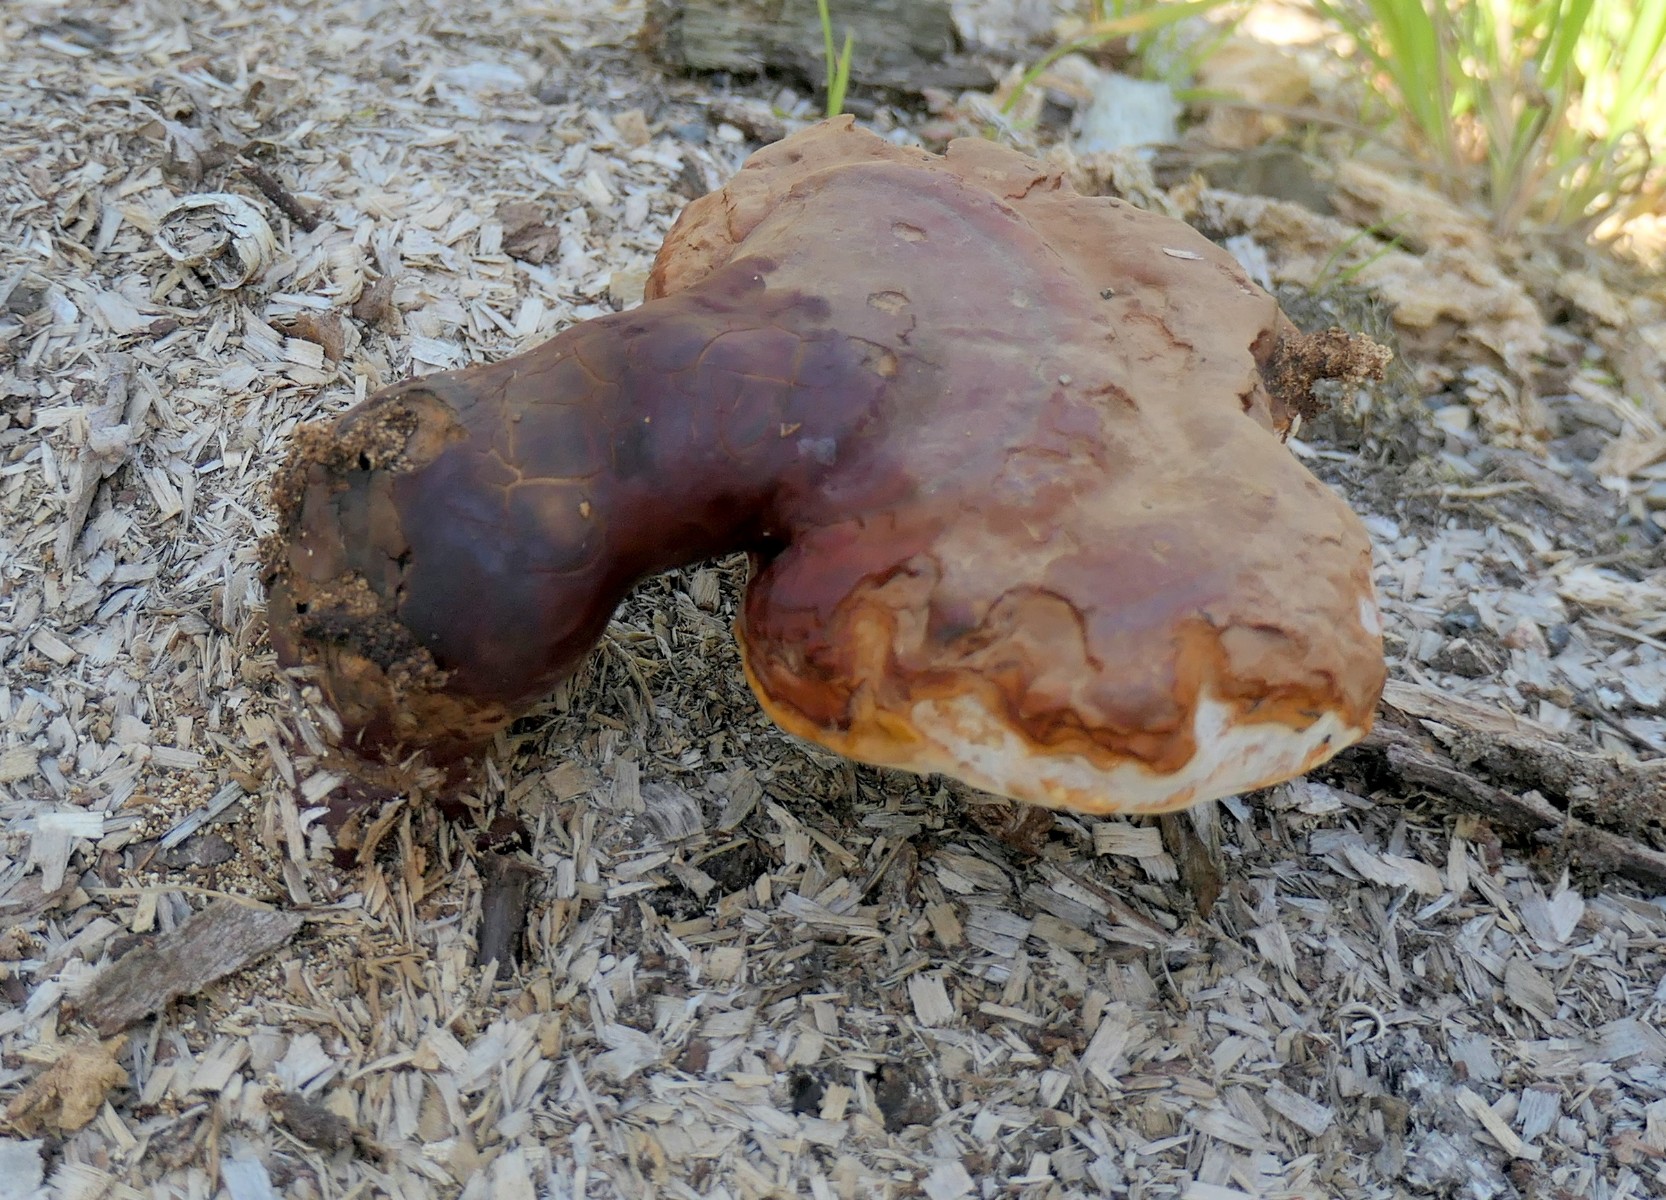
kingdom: Fungi
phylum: Basidiomycota
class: Agaricomycetes
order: Polyporales
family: Polyporaceae
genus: Ganoderma
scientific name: Ganoderma lucidum
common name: skinnende lakporesvamp
